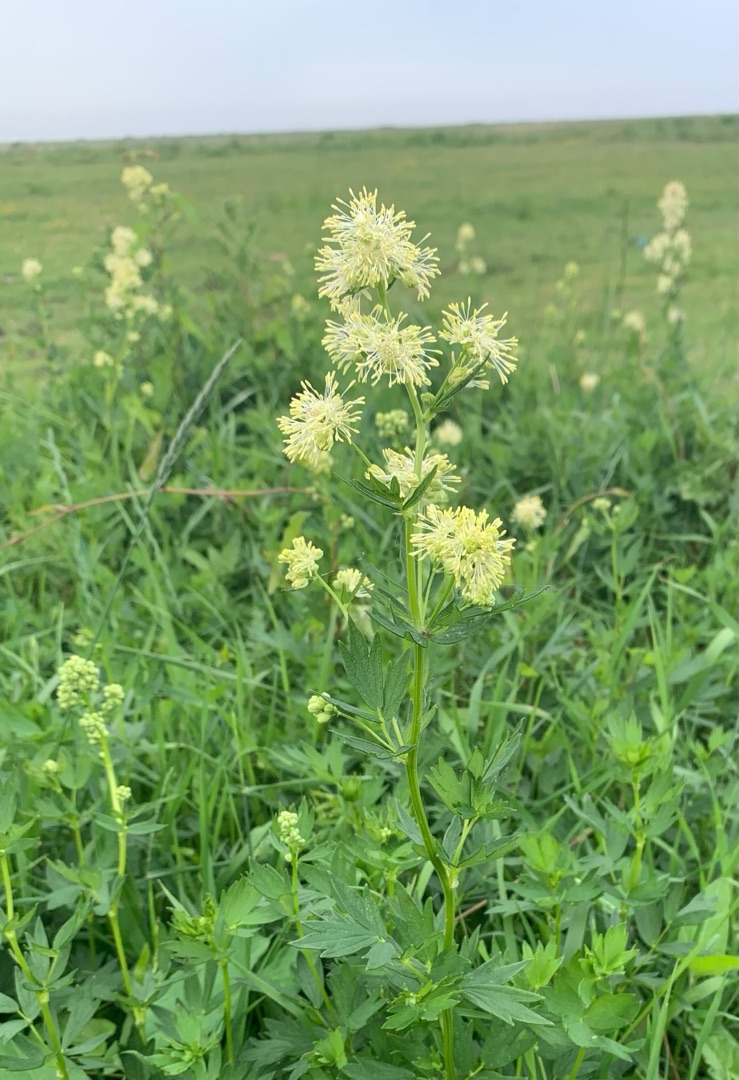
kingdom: Plantae
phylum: Tracheophyta
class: Magnoliopsida
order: Ranunculales
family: Ranunculaceae
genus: Thalictrum
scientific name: Thalictrum flavum
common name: Gul frøstjerne
